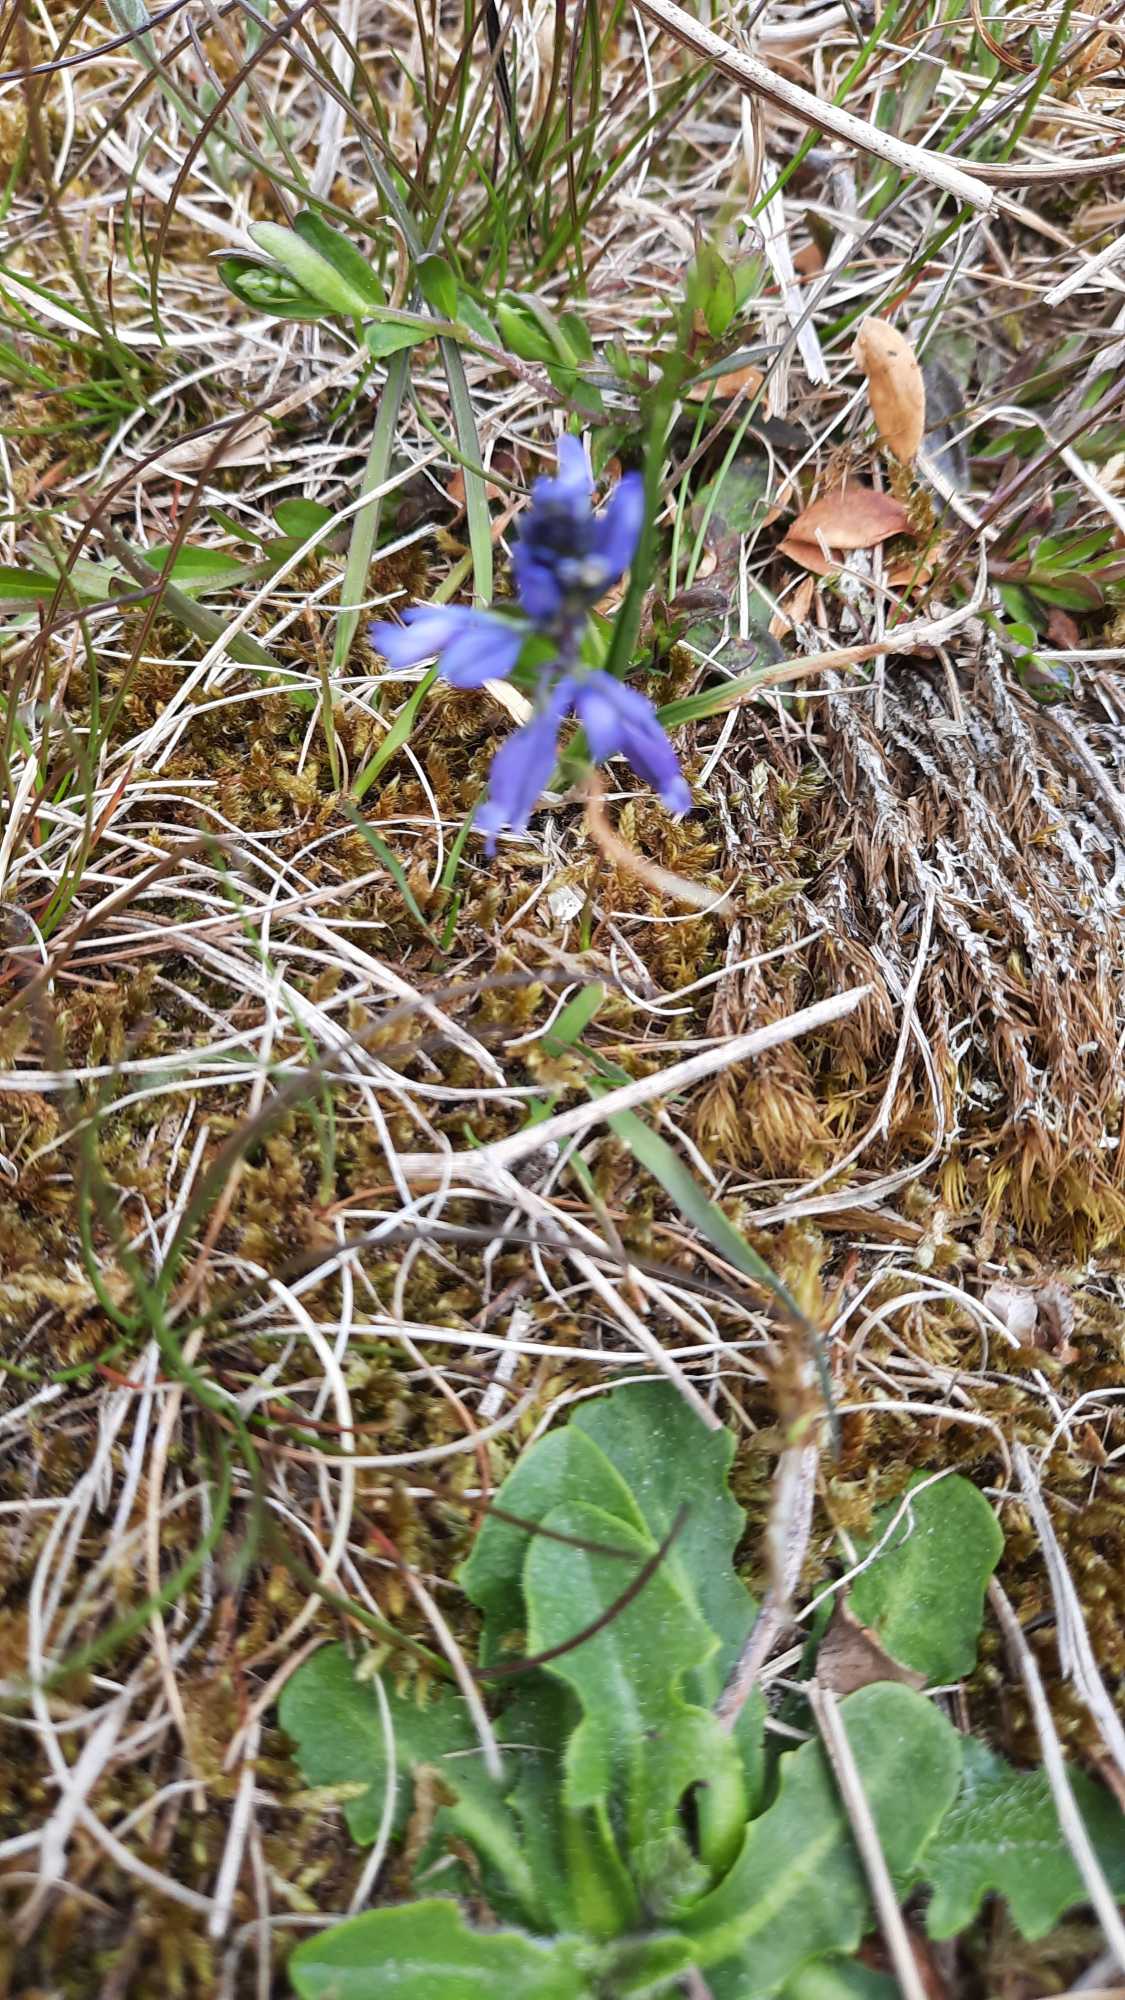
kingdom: Plantae
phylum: Tracheophyta
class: Magnoliopsida
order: Fabales
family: Polygalaceae
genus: Polygala
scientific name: Polygala vulgaris
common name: Almindelig mælkeurt
